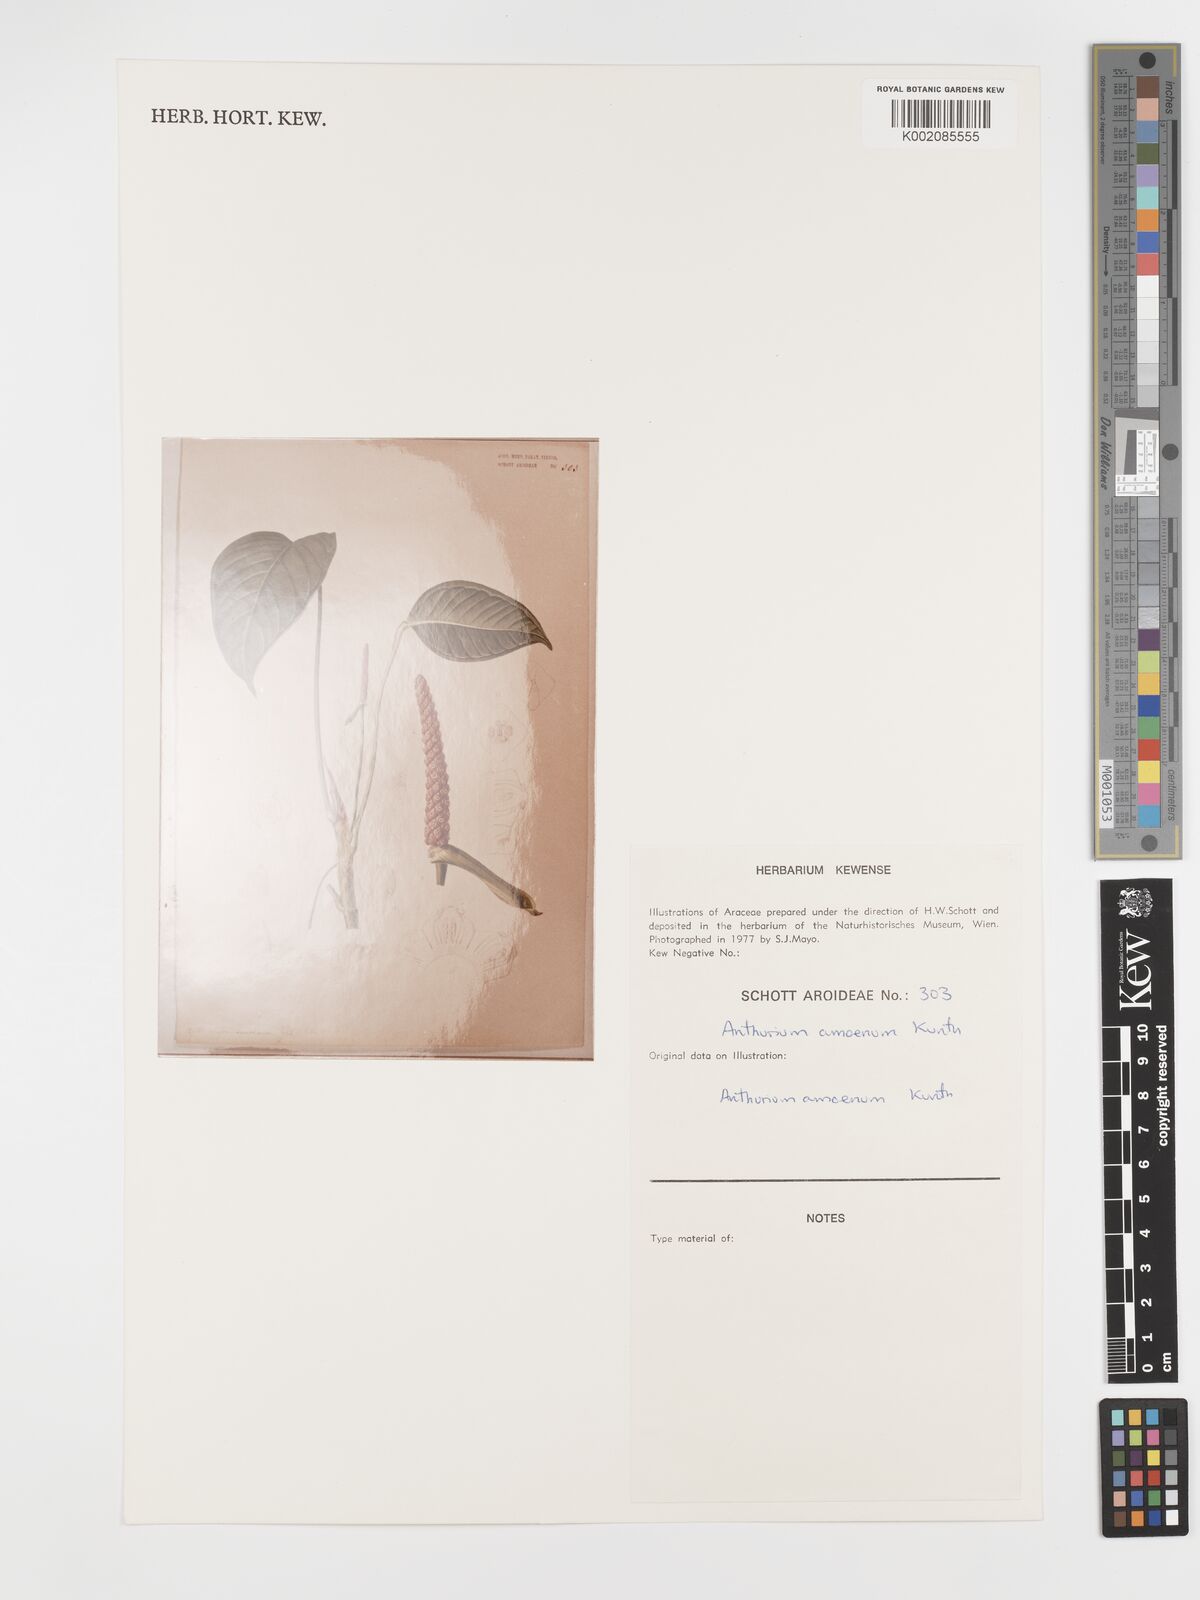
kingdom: Plantae
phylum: Tracheophyta
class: Liliopsida
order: Alismatales
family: Araceae
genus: Anthurium
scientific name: Anthurium amoenum
